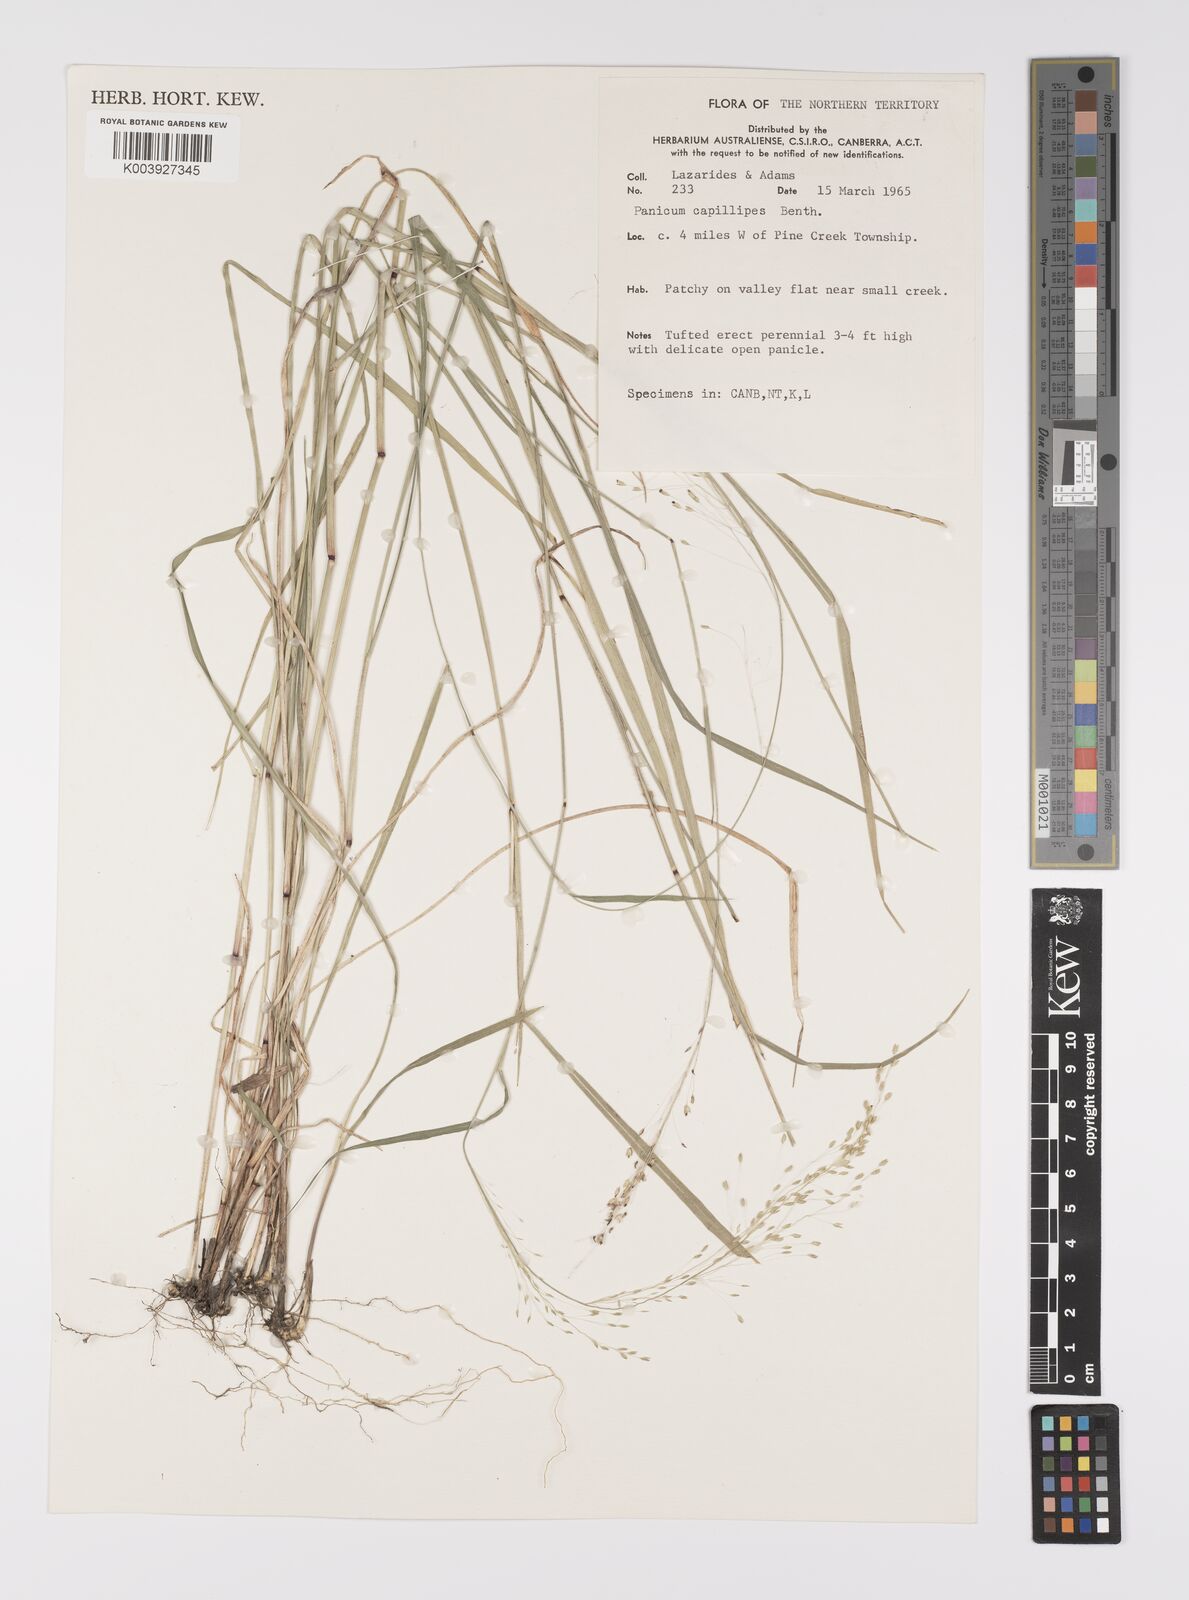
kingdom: Plantae
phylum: Tracheophyta
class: Liliopsida
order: Poales
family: Poaceae
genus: Whiteochloa
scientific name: Whiteochloa capillipes
